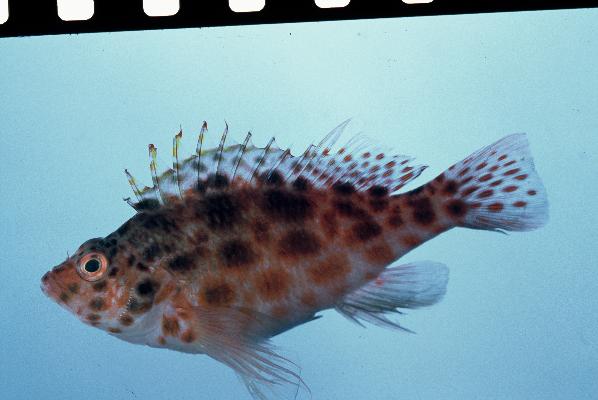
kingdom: Animalia
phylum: Chordata
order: Perciformes
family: Cirrhitidae
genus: Cirrhitichthys
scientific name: Cirrhitichthys oxycephalus
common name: Spotted hawkfish
